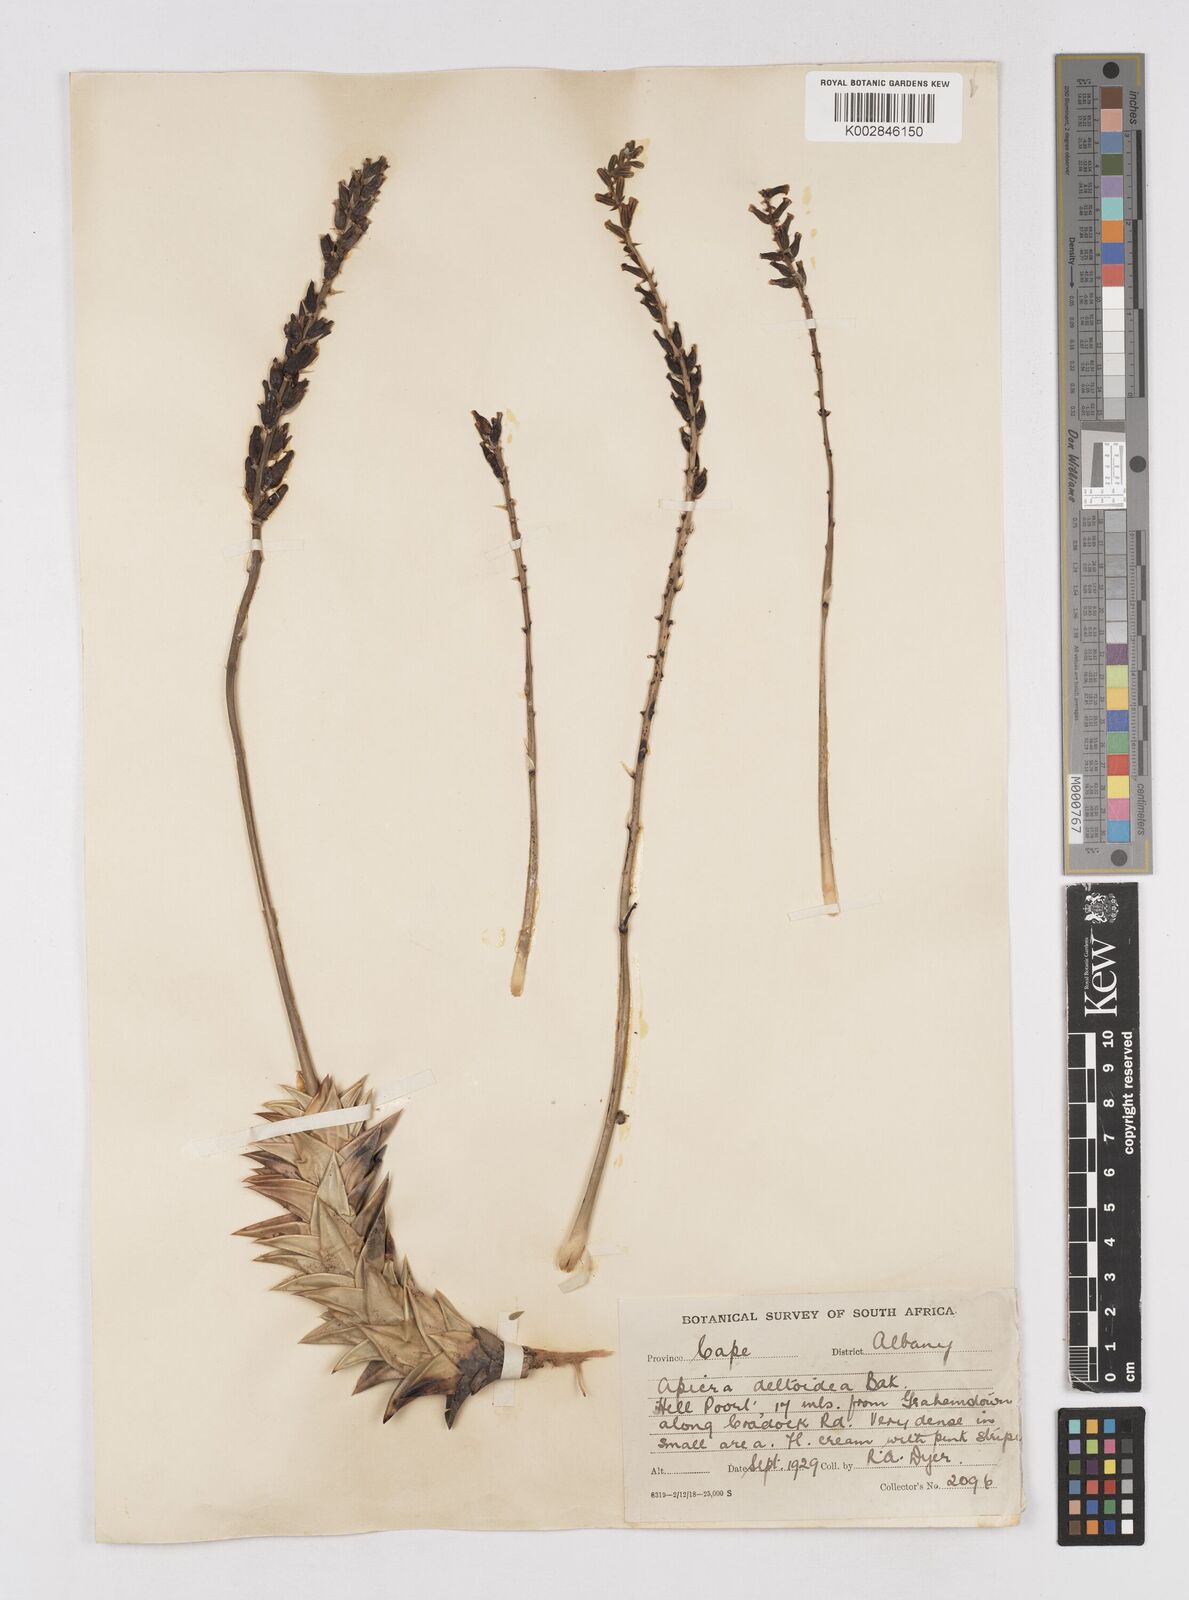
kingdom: Plantae
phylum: Tracheophyta
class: Liliopsida
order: Asparagales
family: Asphodelaceae
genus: Astroloba
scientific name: Astroloba congesta
